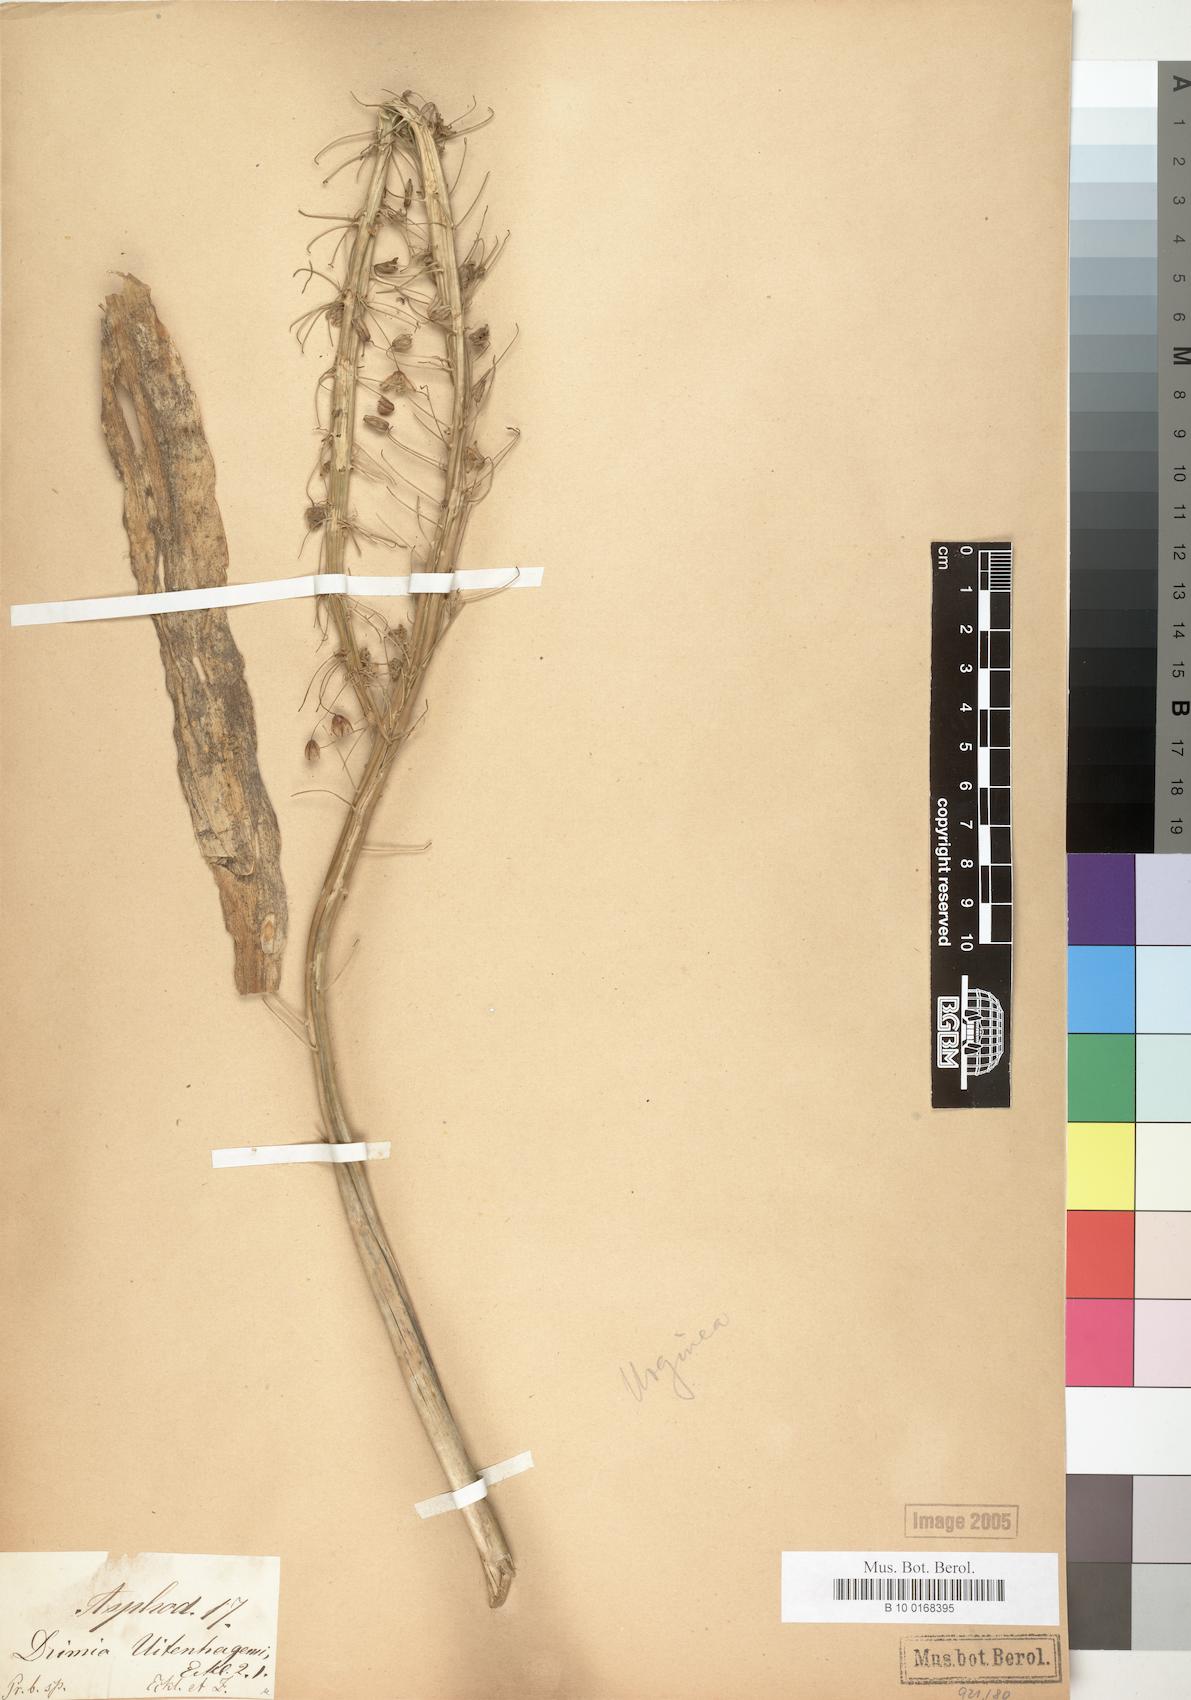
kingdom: Plantae
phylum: Tracheophyta
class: Liliopsida
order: Asparagales
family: Asparagaceae
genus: Drimia
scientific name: Drimia altissima
